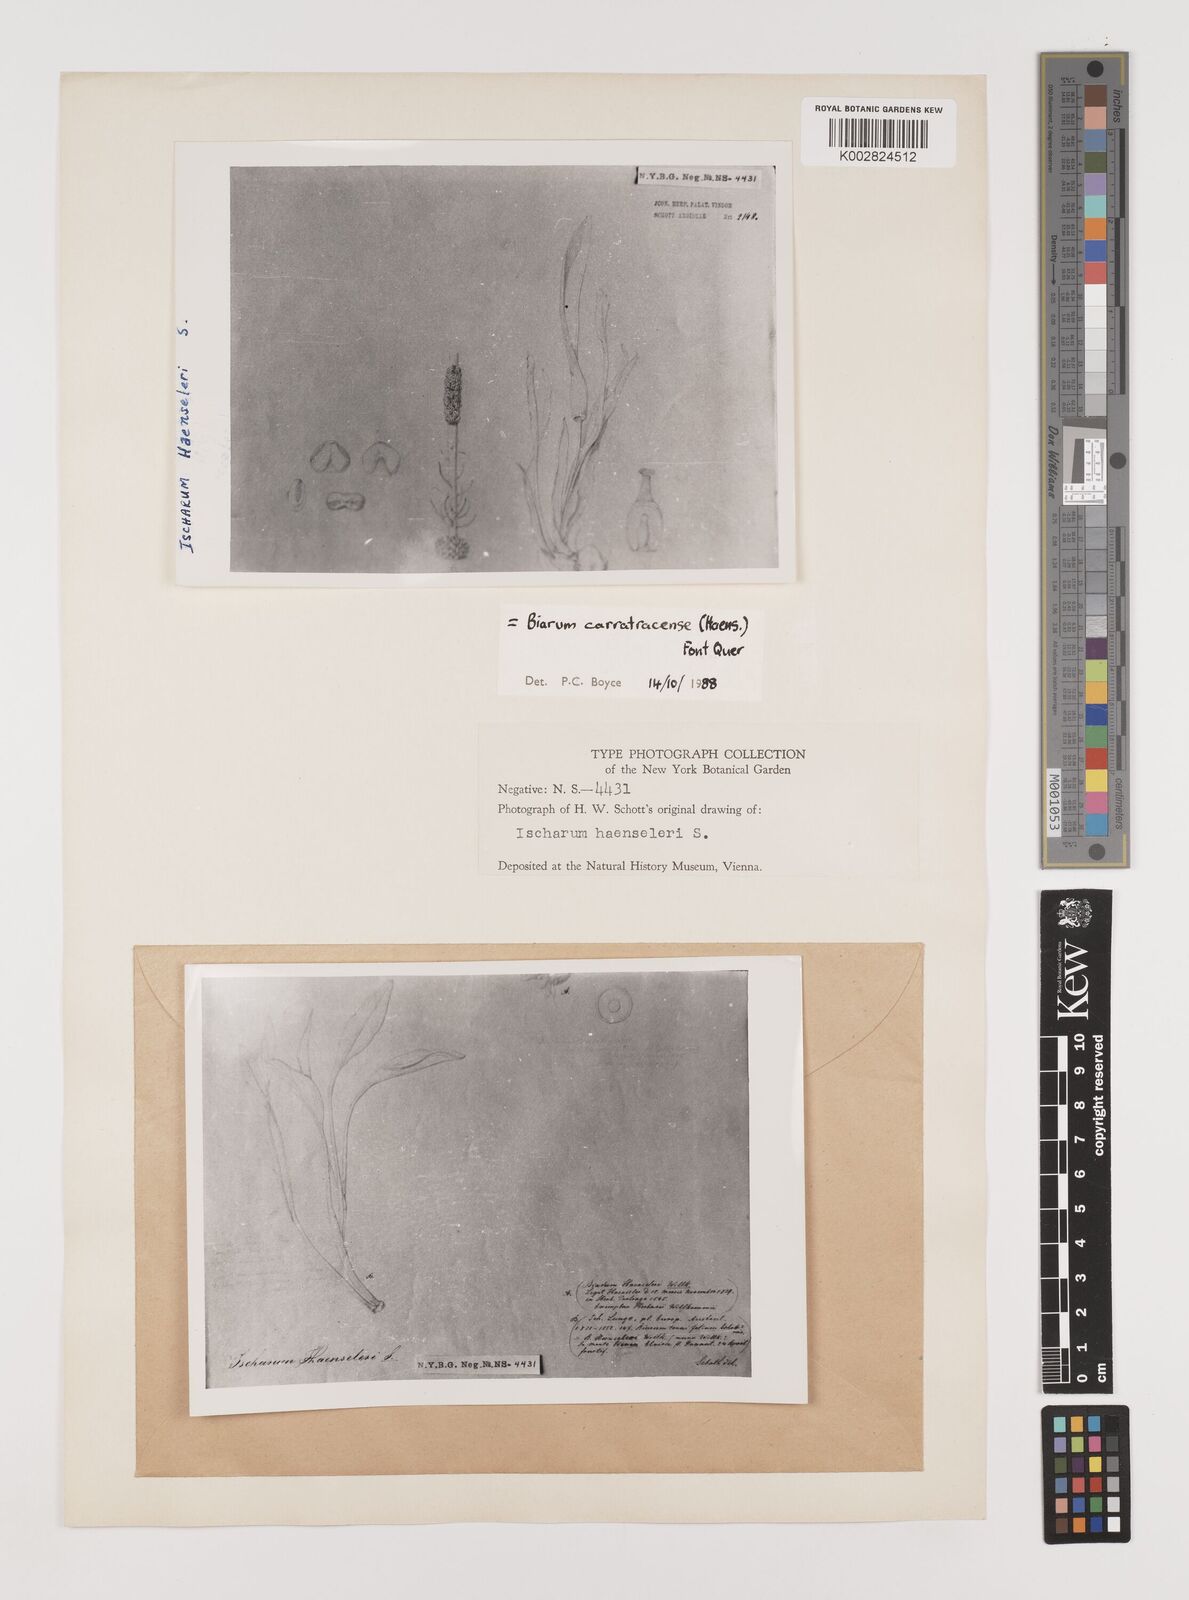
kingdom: Plantae
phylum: Tracheophyta
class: Liliopsida
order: Alismatales
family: Araceae
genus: Biarum
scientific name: Biarum carratracense
